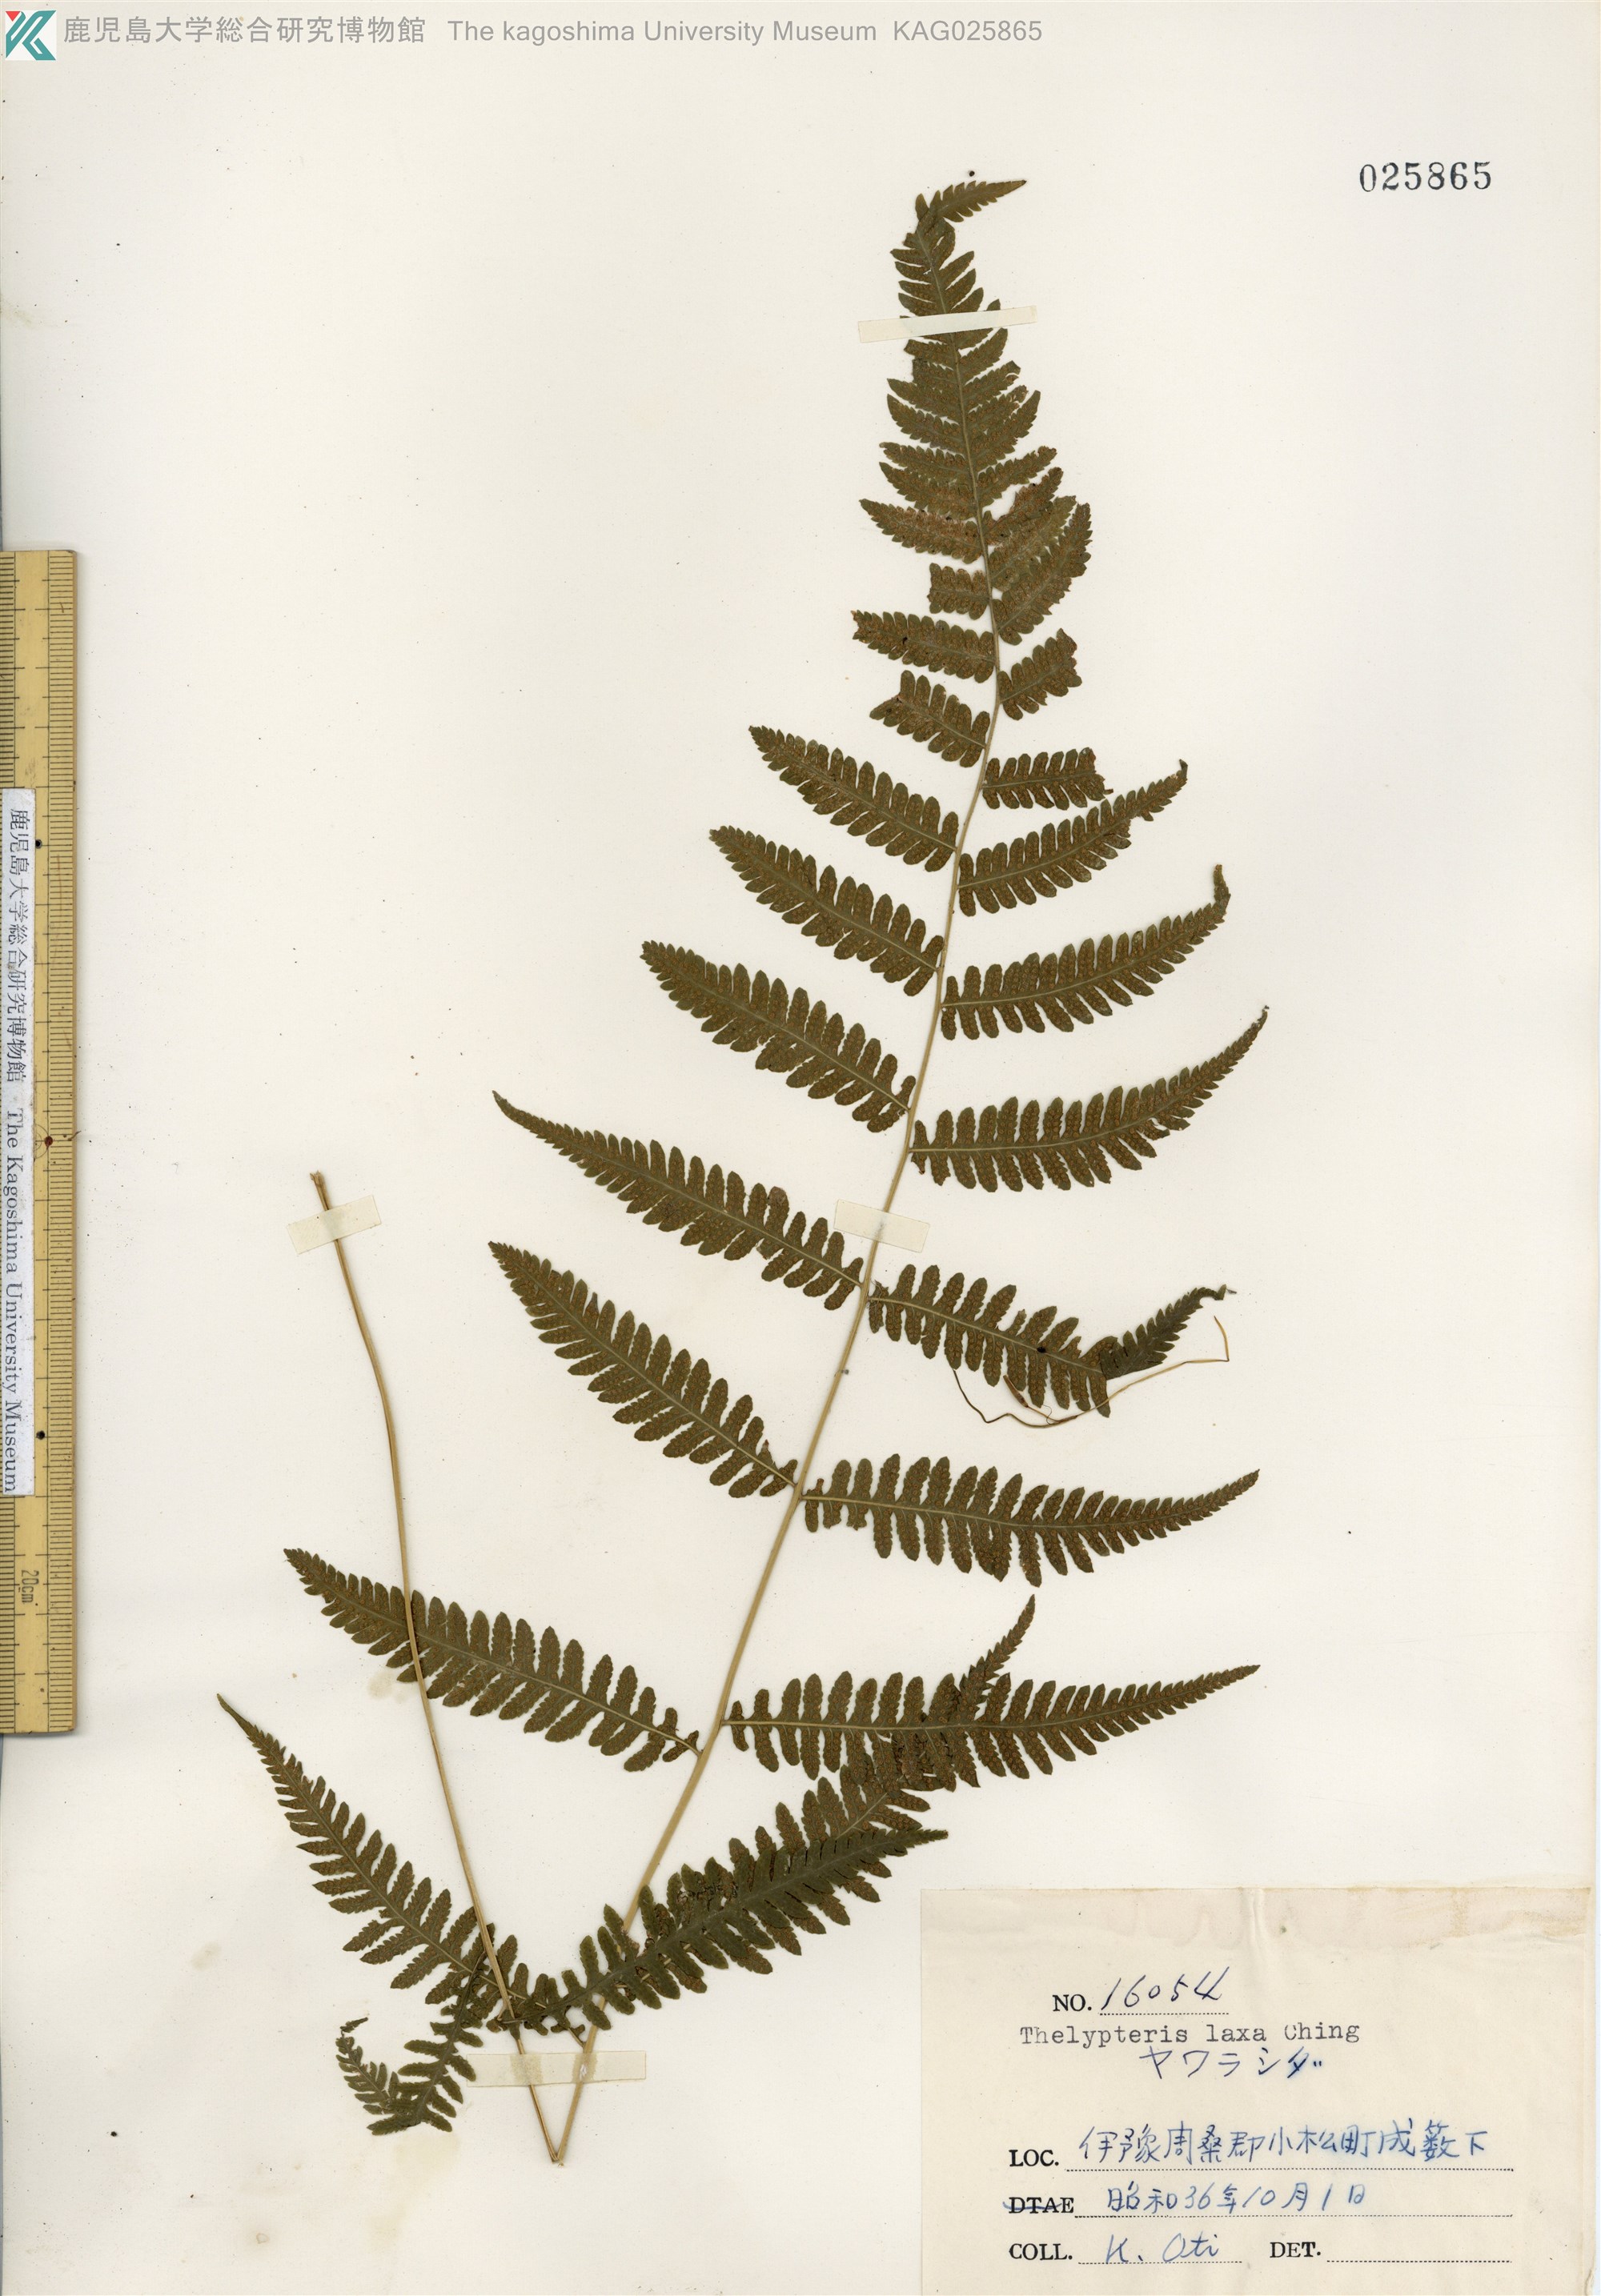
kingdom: Plantae
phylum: Tracheophyta
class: Polypodiopsida
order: Polypodiales
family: Thelypteridaceae
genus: Metathelypteris
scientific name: Metathelypteris laxa
